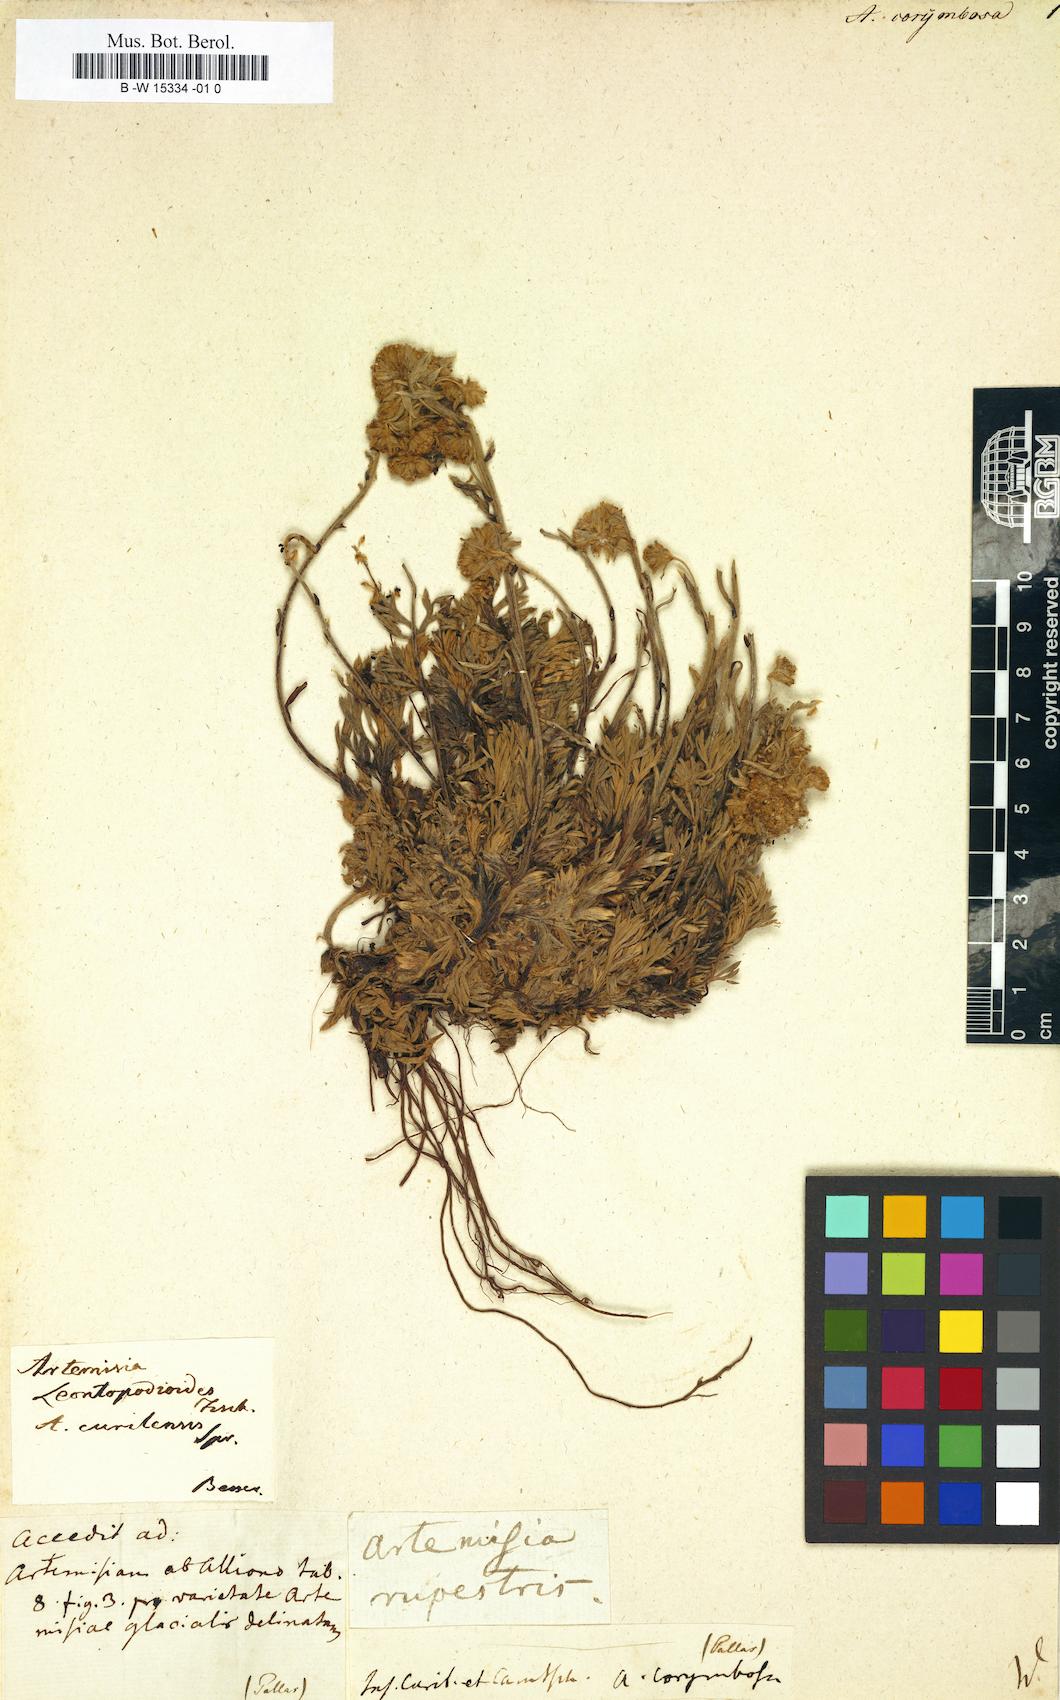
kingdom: Plantae
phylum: Tracheophyta
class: Magnoliopsida
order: Asterales
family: Asteraceae
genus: Artemisia
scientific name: Artemisia alba
